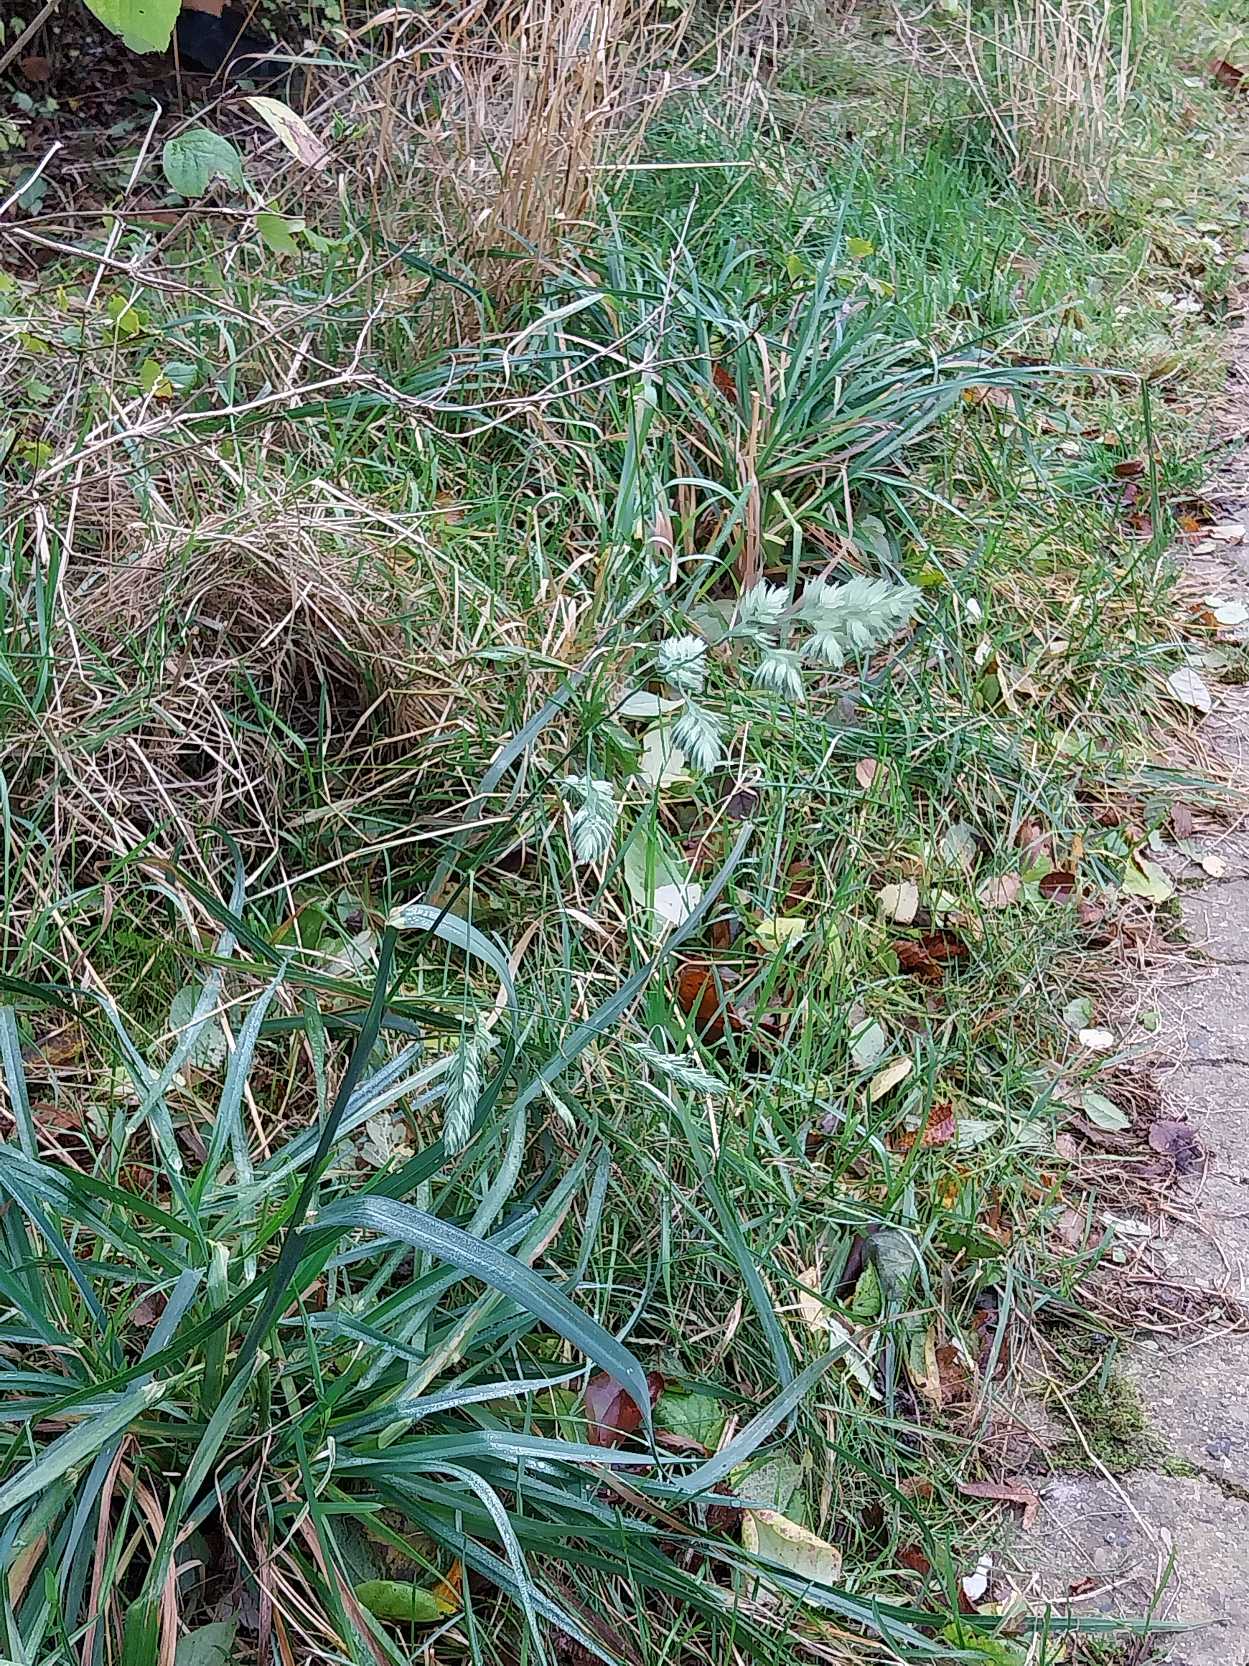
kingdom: Plantae
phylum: Tracheophyta
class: Liliopsida
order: Poales
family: Poaceae
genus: Dactylis
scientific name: Dactylis glomerata
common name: Almindelig hundegræs
